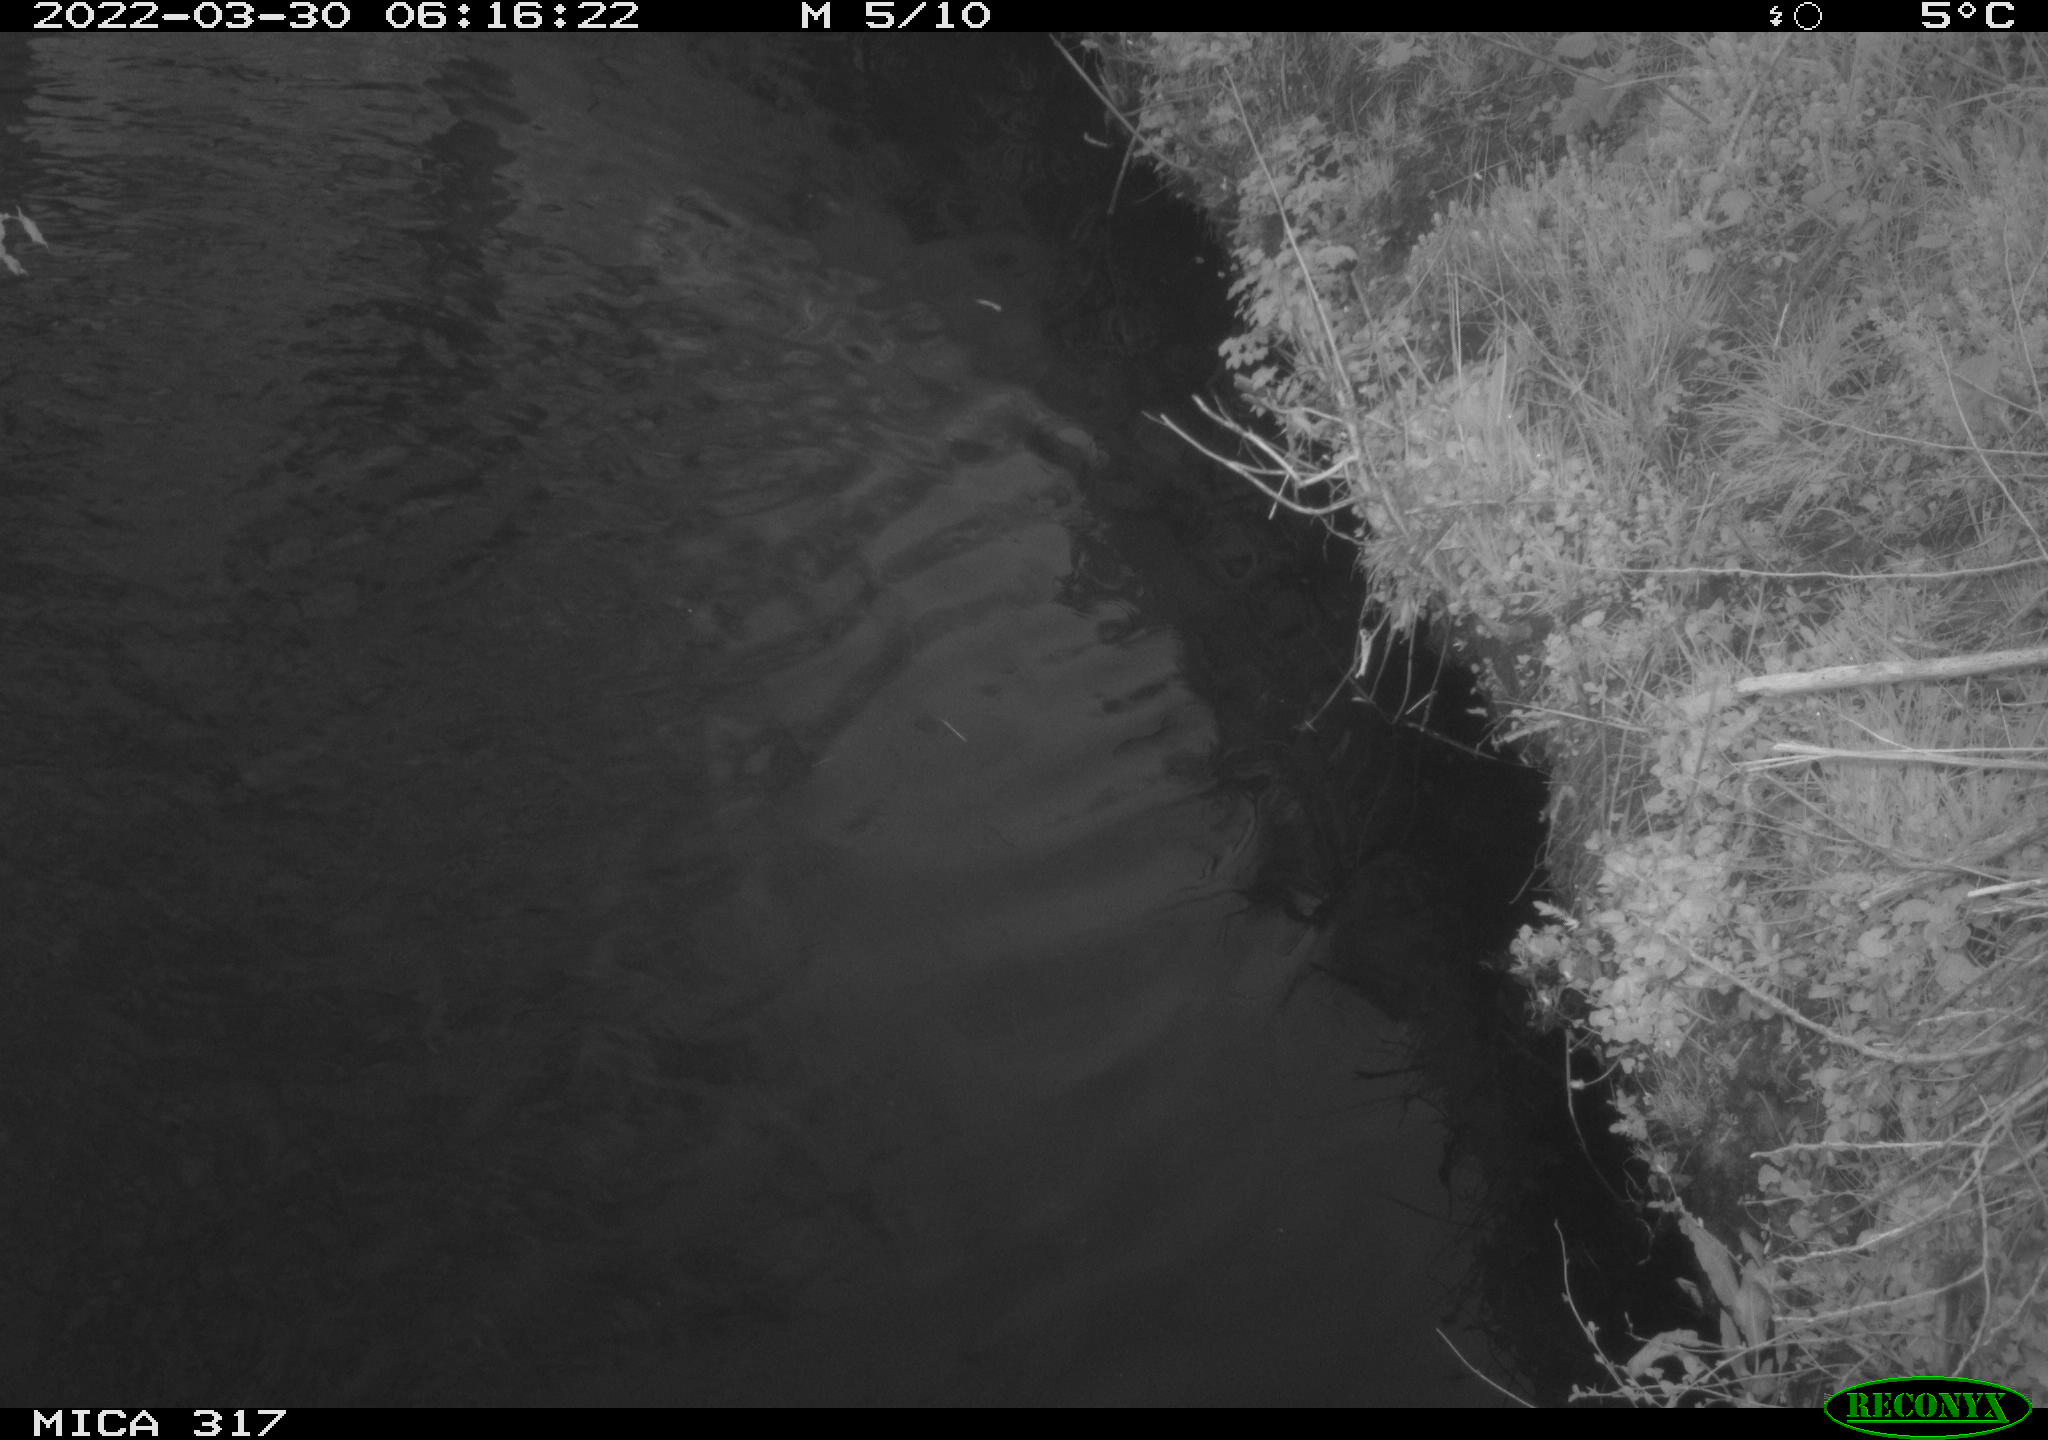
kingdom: Animalia
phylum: Chordata
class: Aves
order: Anseriformes
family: Anatidae
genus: Anas
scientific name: Anas platyrhynchos
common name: Mallard
